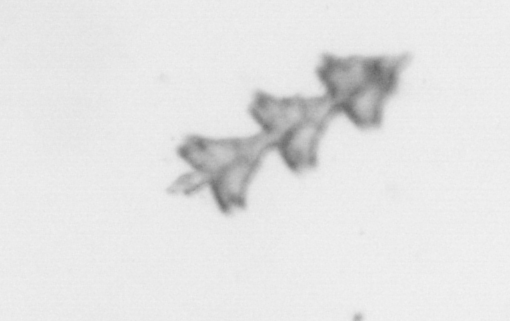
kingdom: Animalia
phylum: Cnidaria
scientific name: Cnidaria
